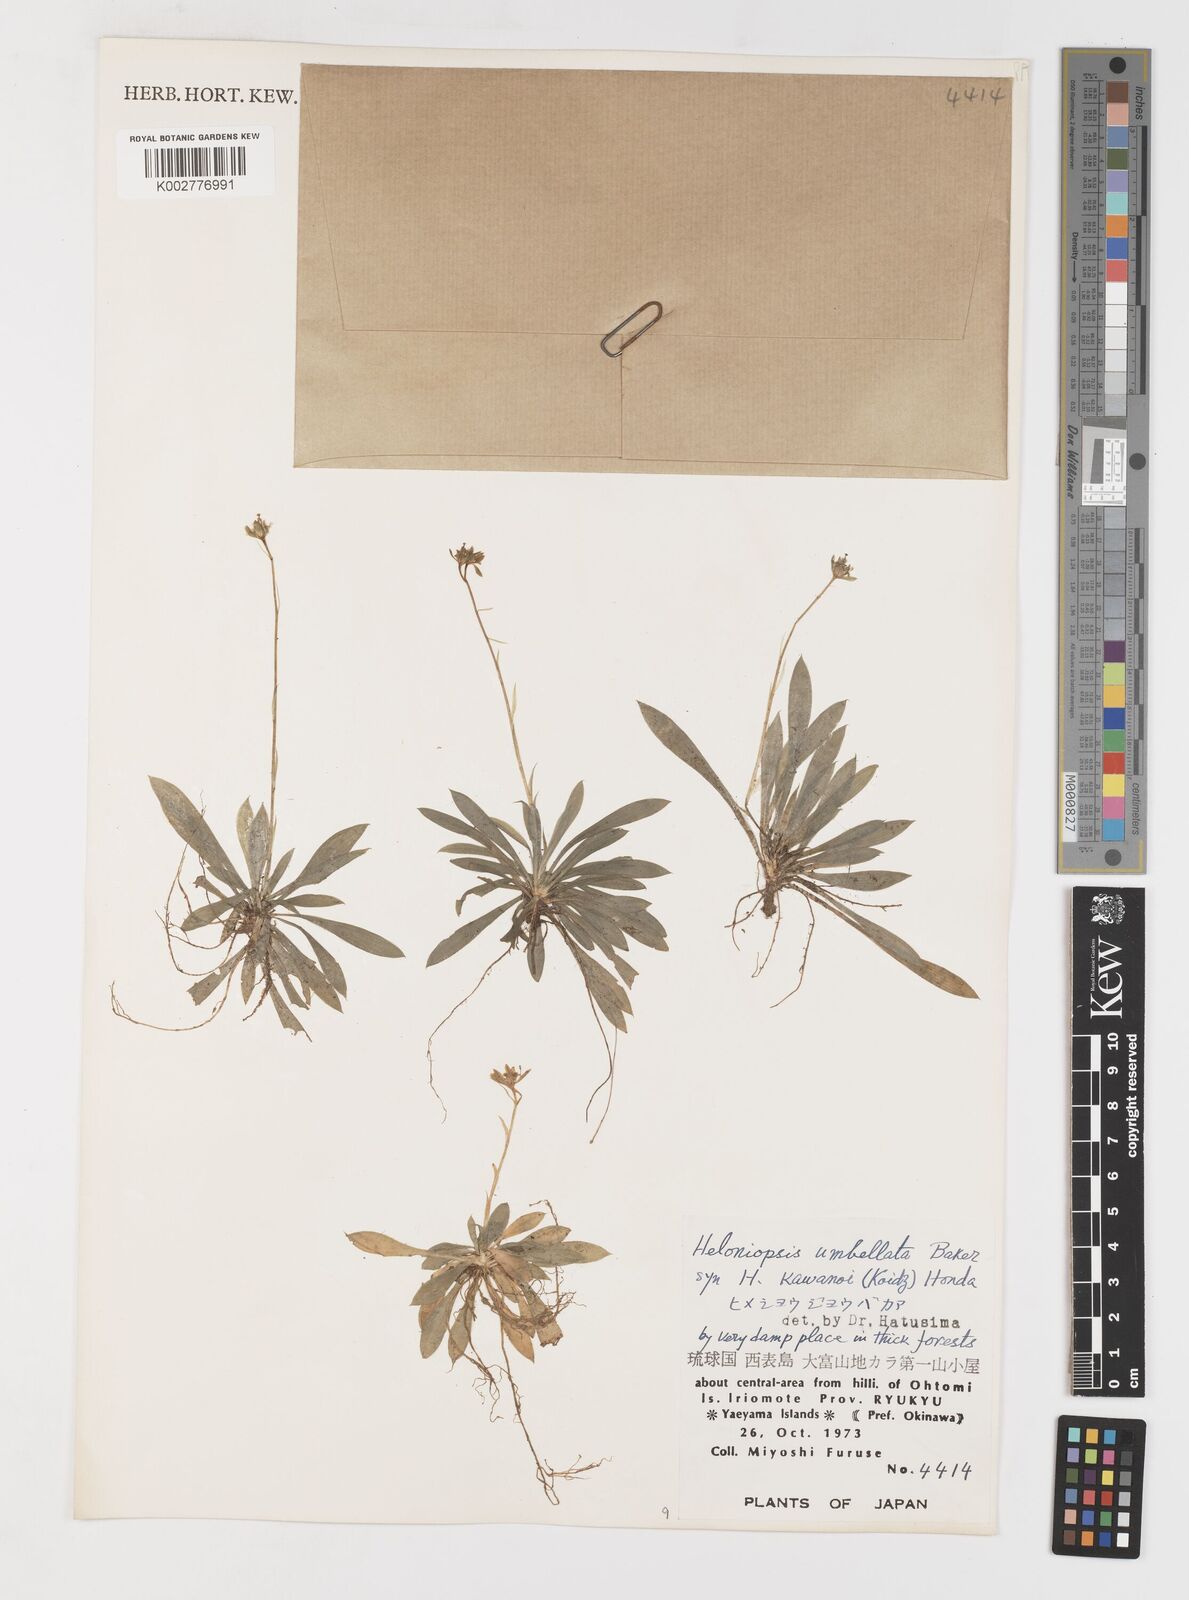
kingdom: Plantae
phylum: Tracheophyta
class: Liliopsida
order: Liliales
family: Melanthiaceae
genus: Helonias
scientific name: Helonias umbellata
